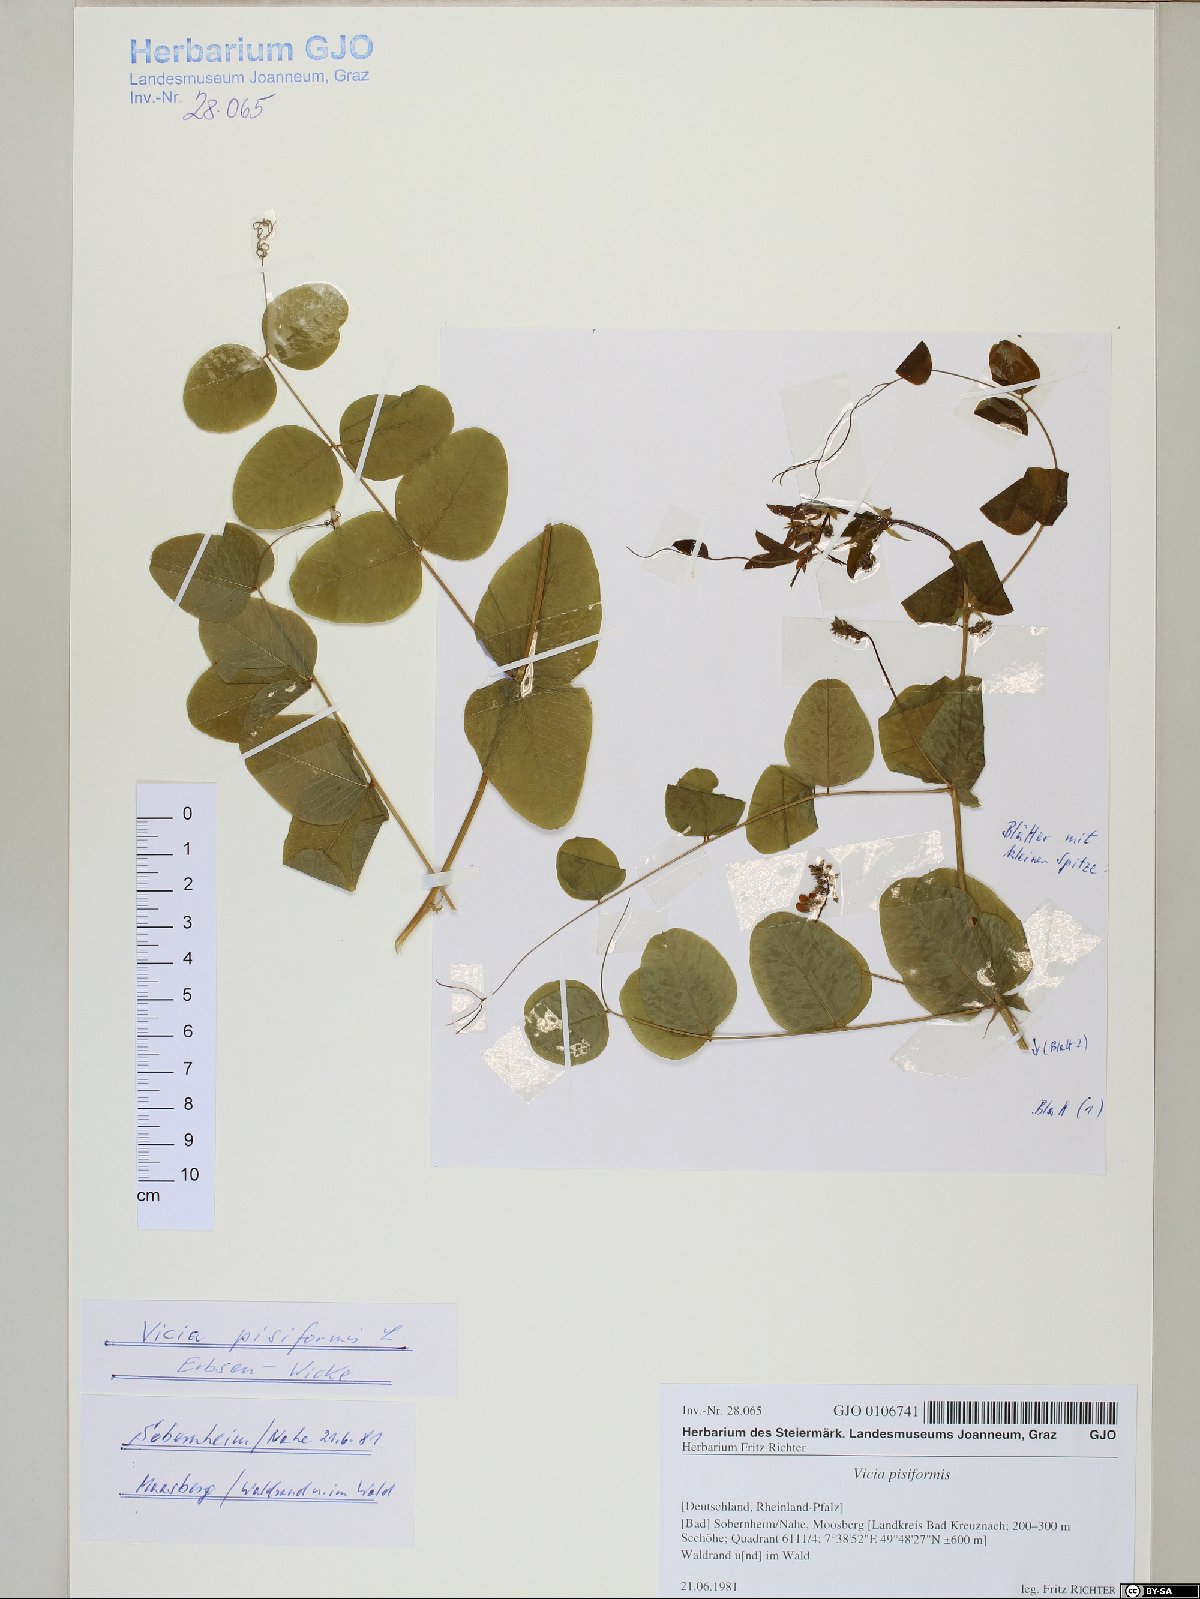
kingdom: Plantae
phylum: Tracheophyta
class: Magnoliopsida
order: Fabales
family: Fabaceae
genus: Vicia
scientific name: Vicia pisiformis
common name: Pale-flower vetch
